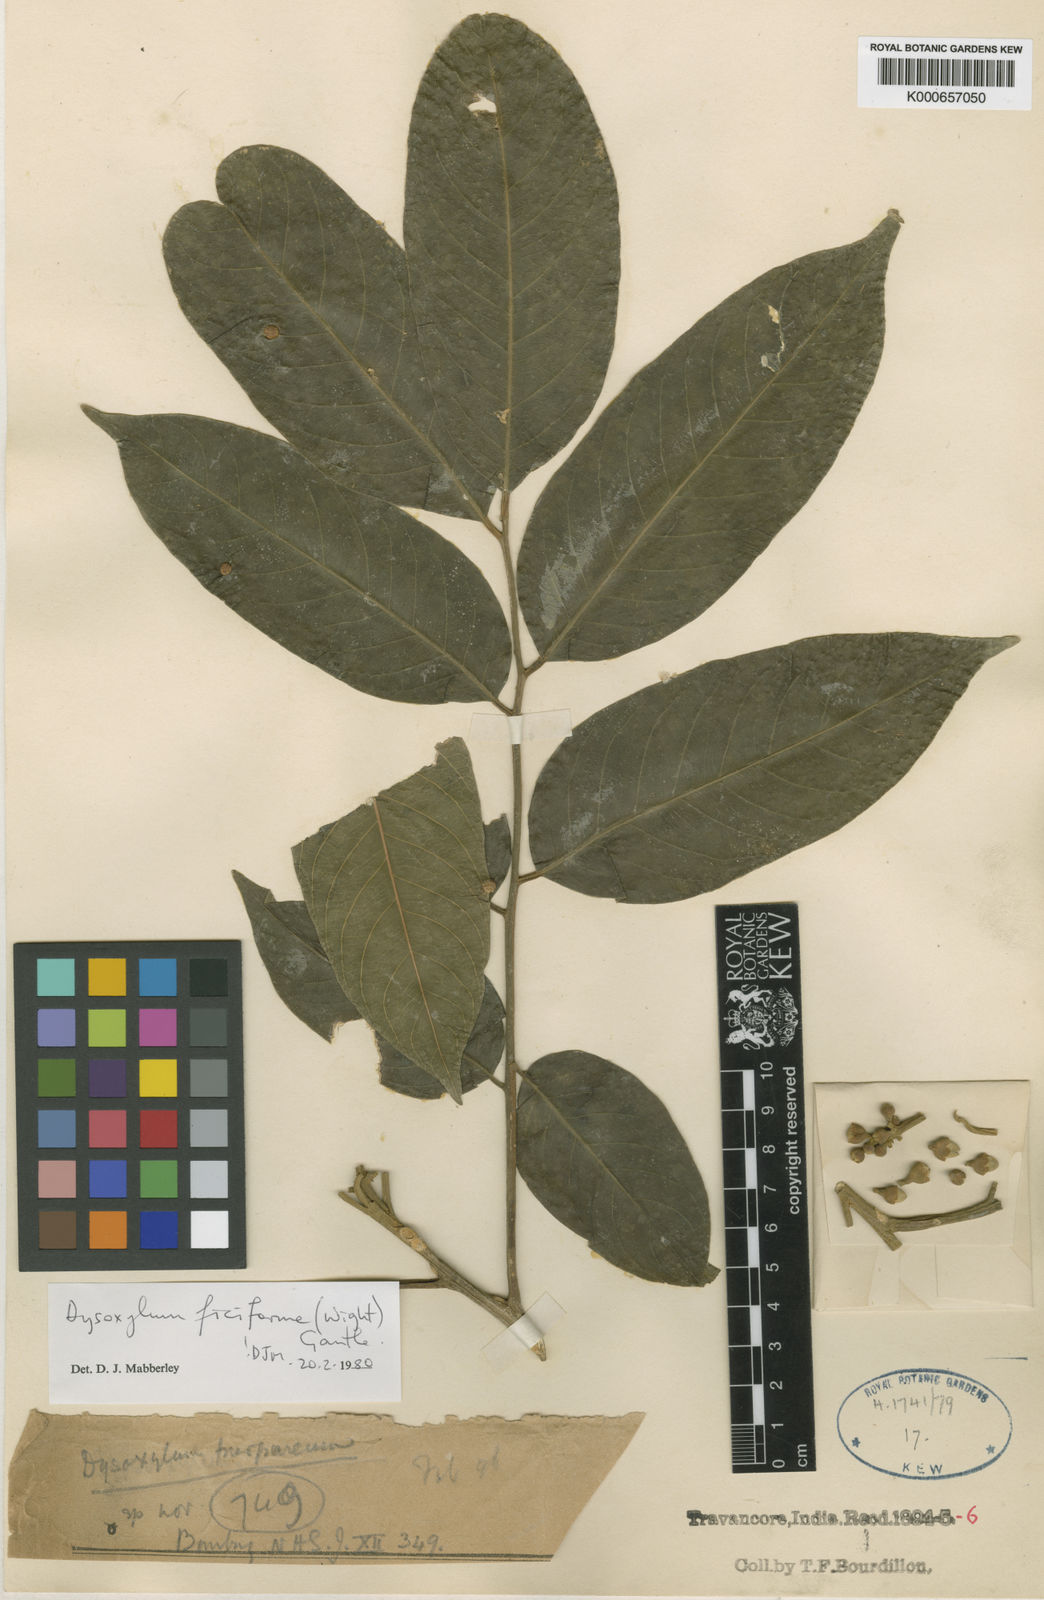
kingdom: Plantae
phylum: Tracheophyta
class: Magnoliopsida
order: Sapindales
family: Meliaceae
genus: Dysoxylum
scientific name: Dysoxylum malabaricum
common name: White cedar
